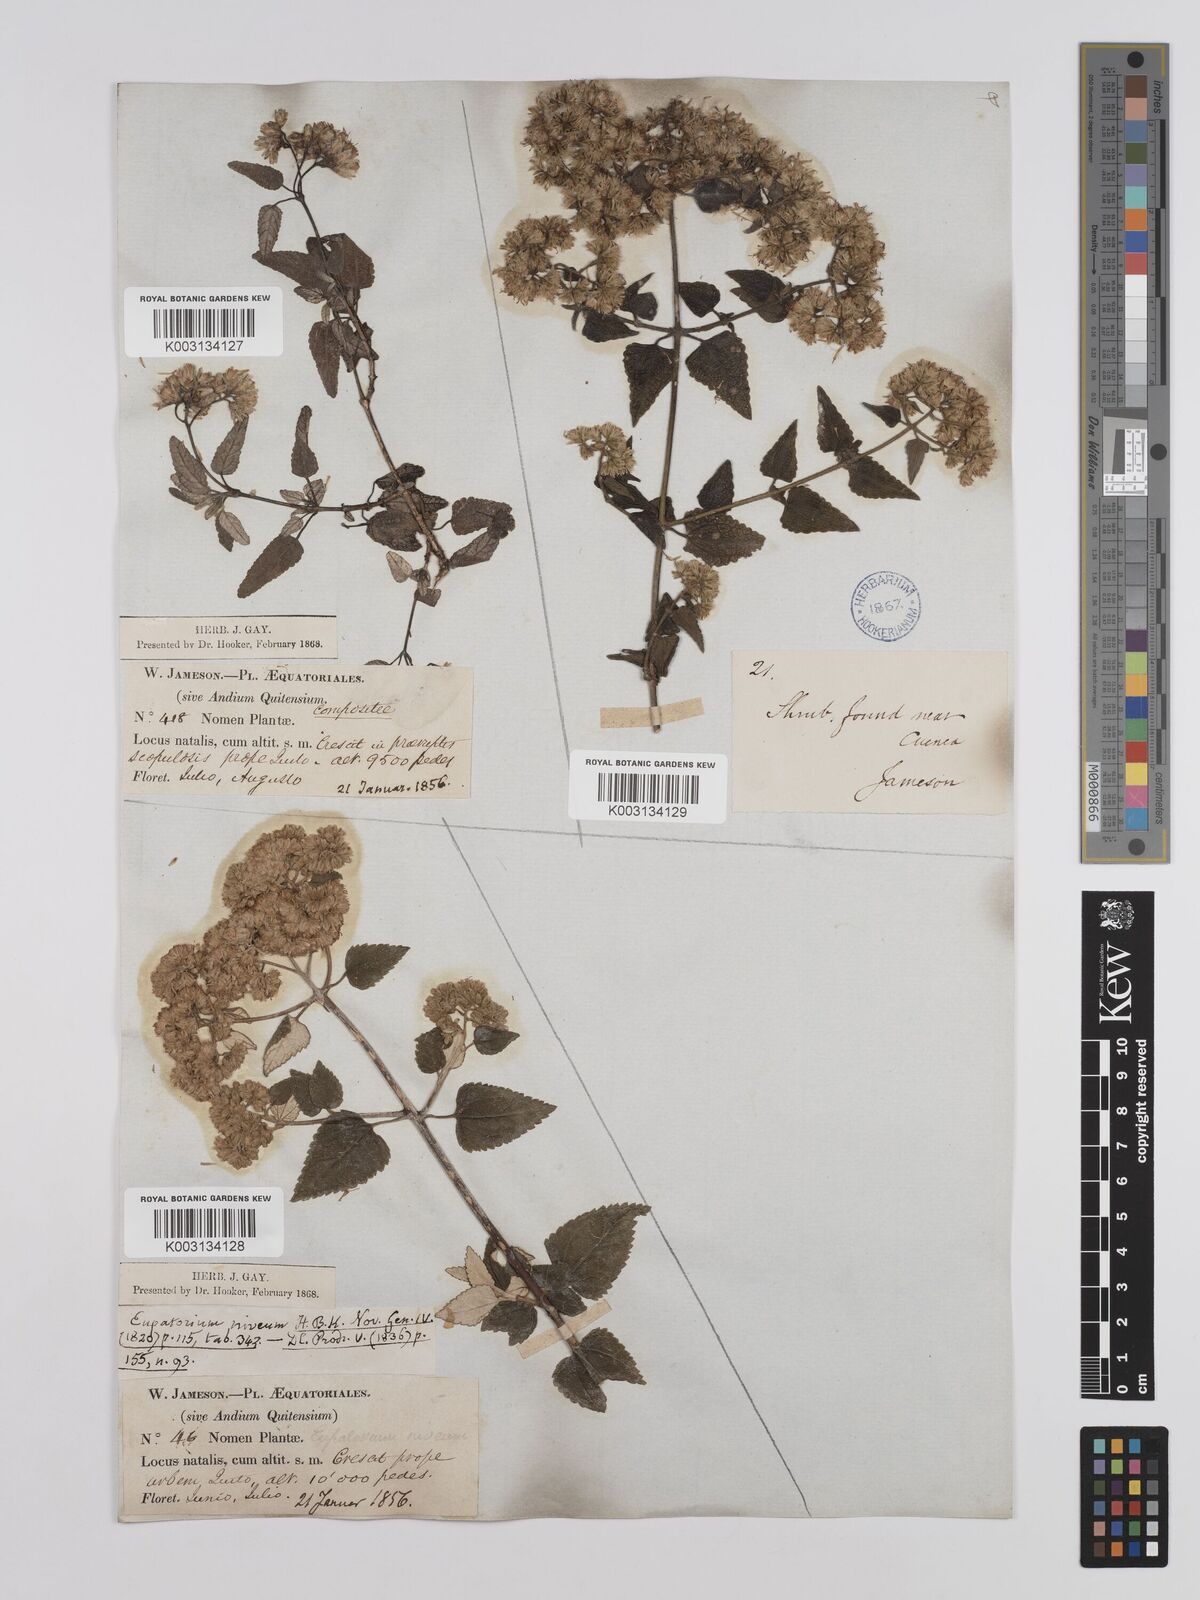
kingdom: Plantae
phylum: Tracheophyta
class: Magnoliopsida
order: Asterales
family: Asteraceae
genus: Cronquistianthus
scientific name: Cronquistianthus leucophyllus
